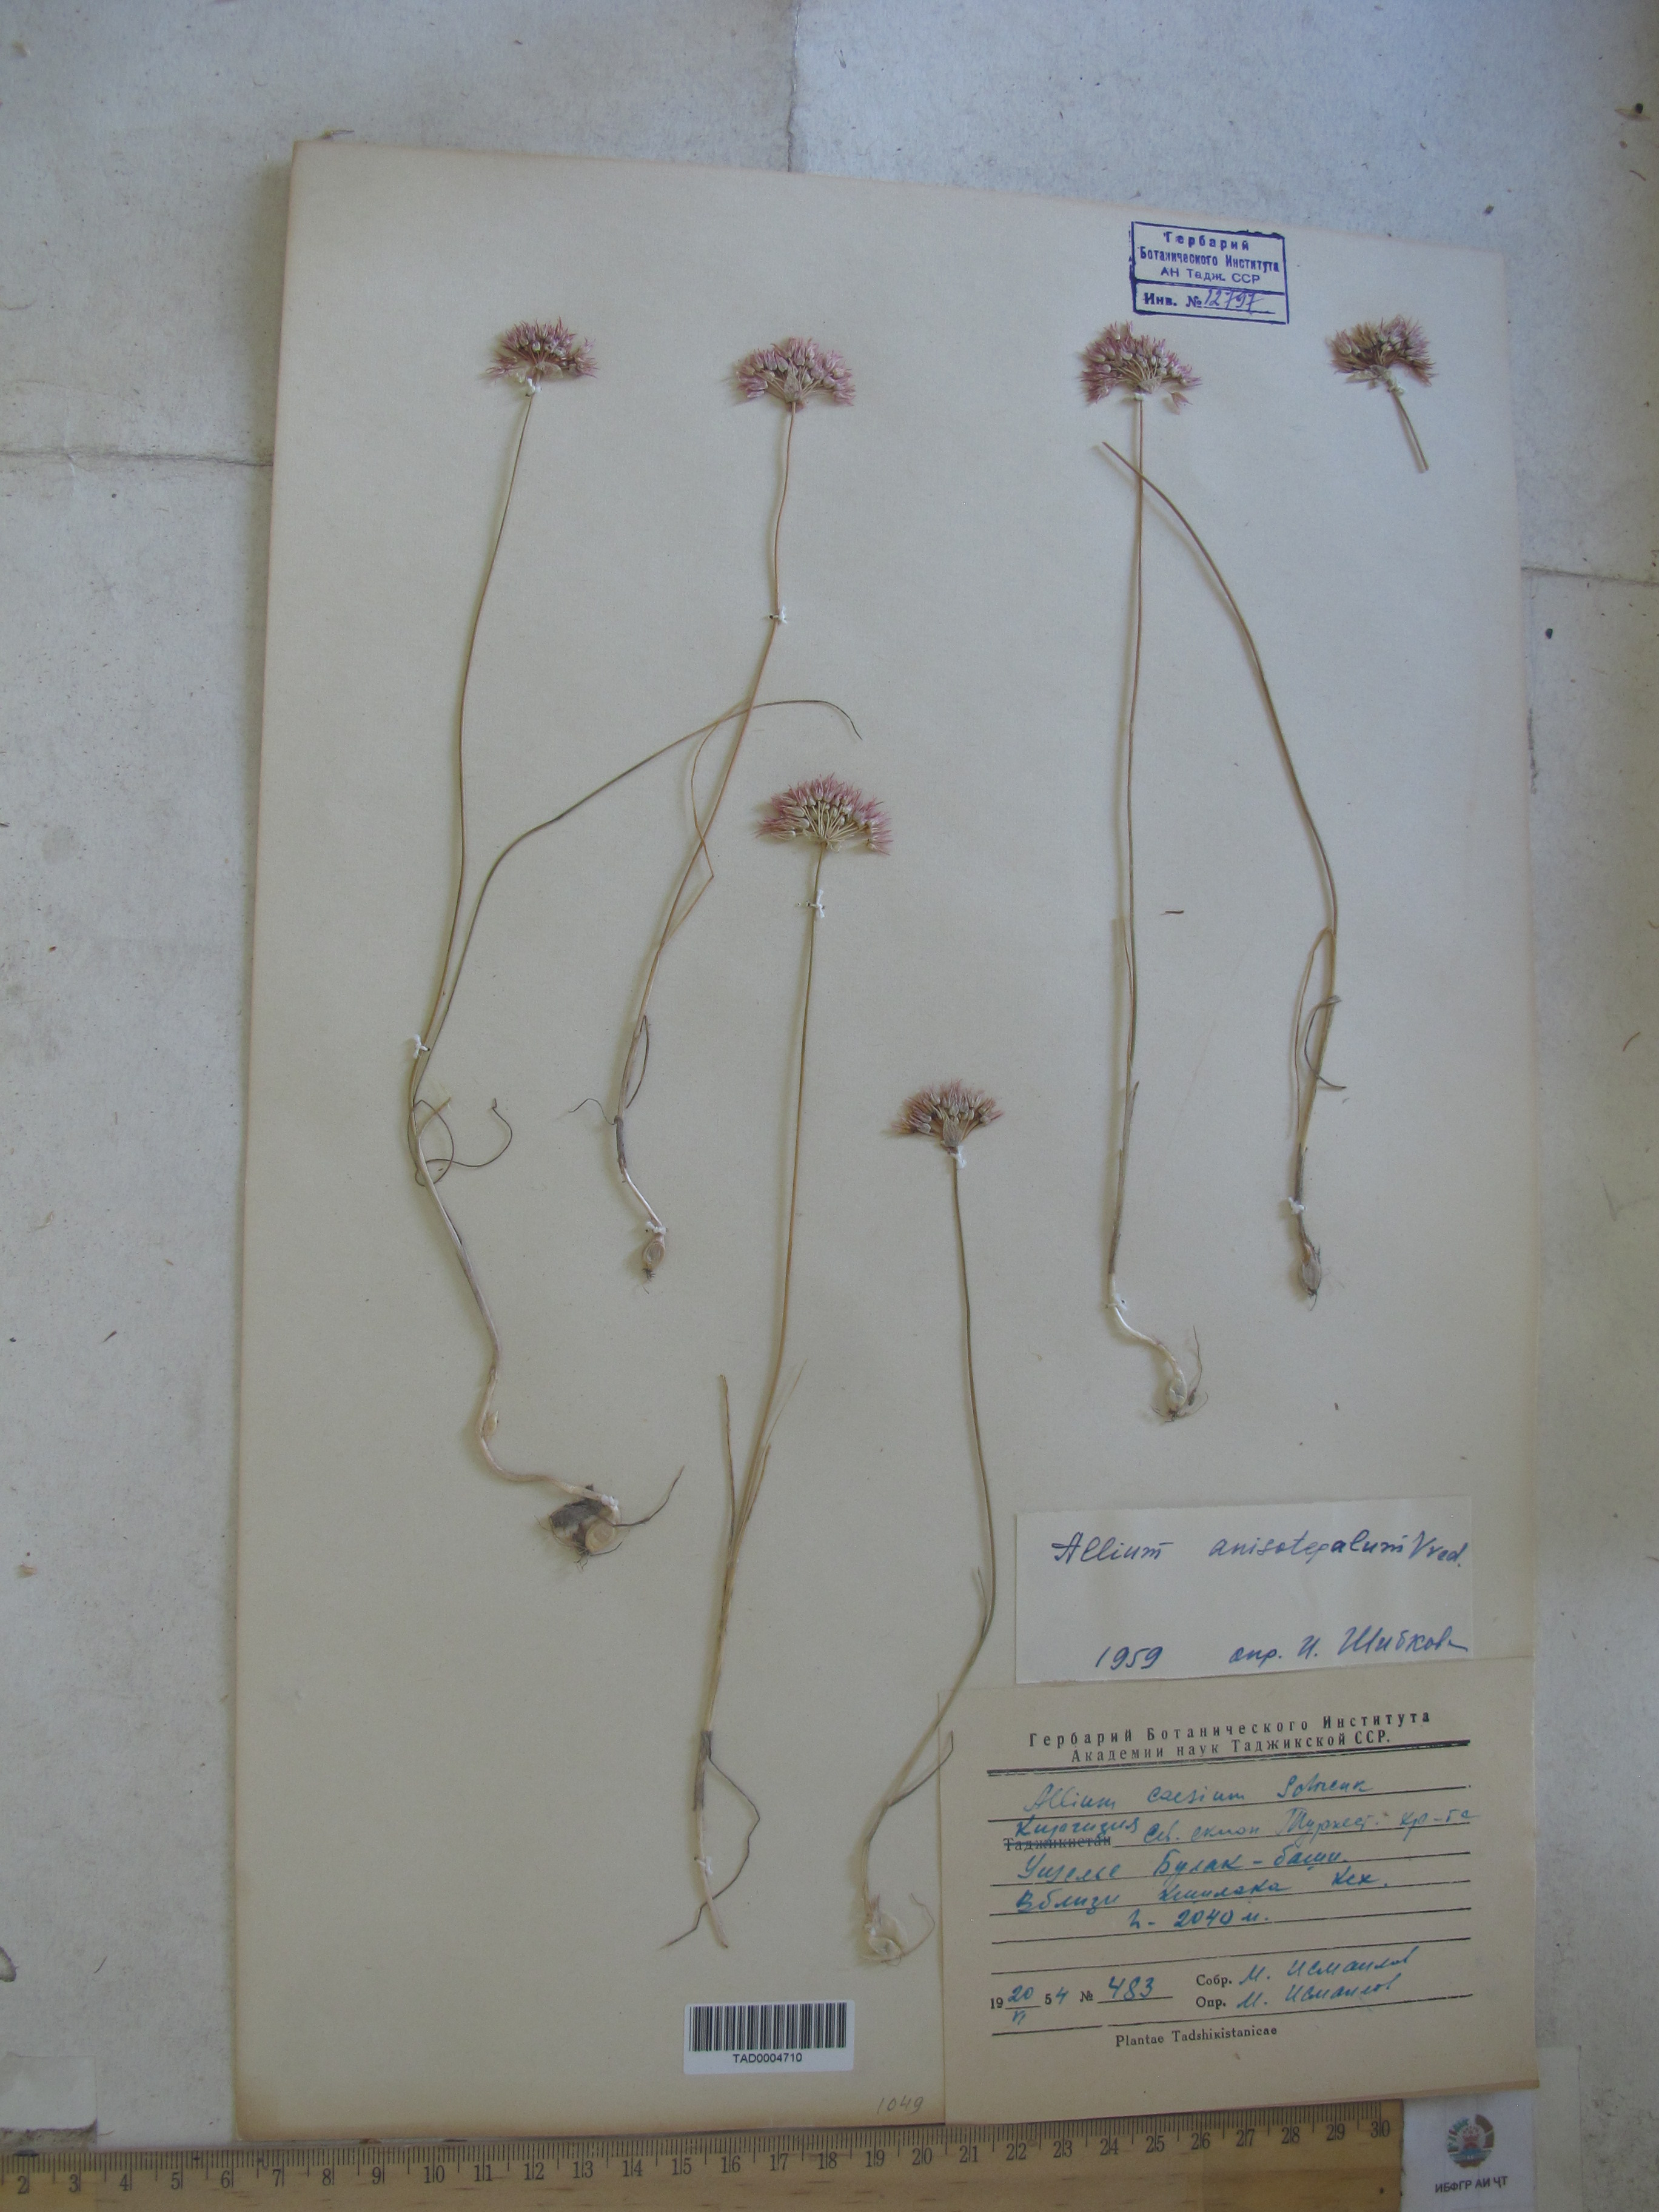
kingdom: Plantae
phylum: Tracheophyta
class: Liliopsida
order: Asparagales
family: Amaryllidaceae
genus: Allium
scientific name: Allium anisotepalum
